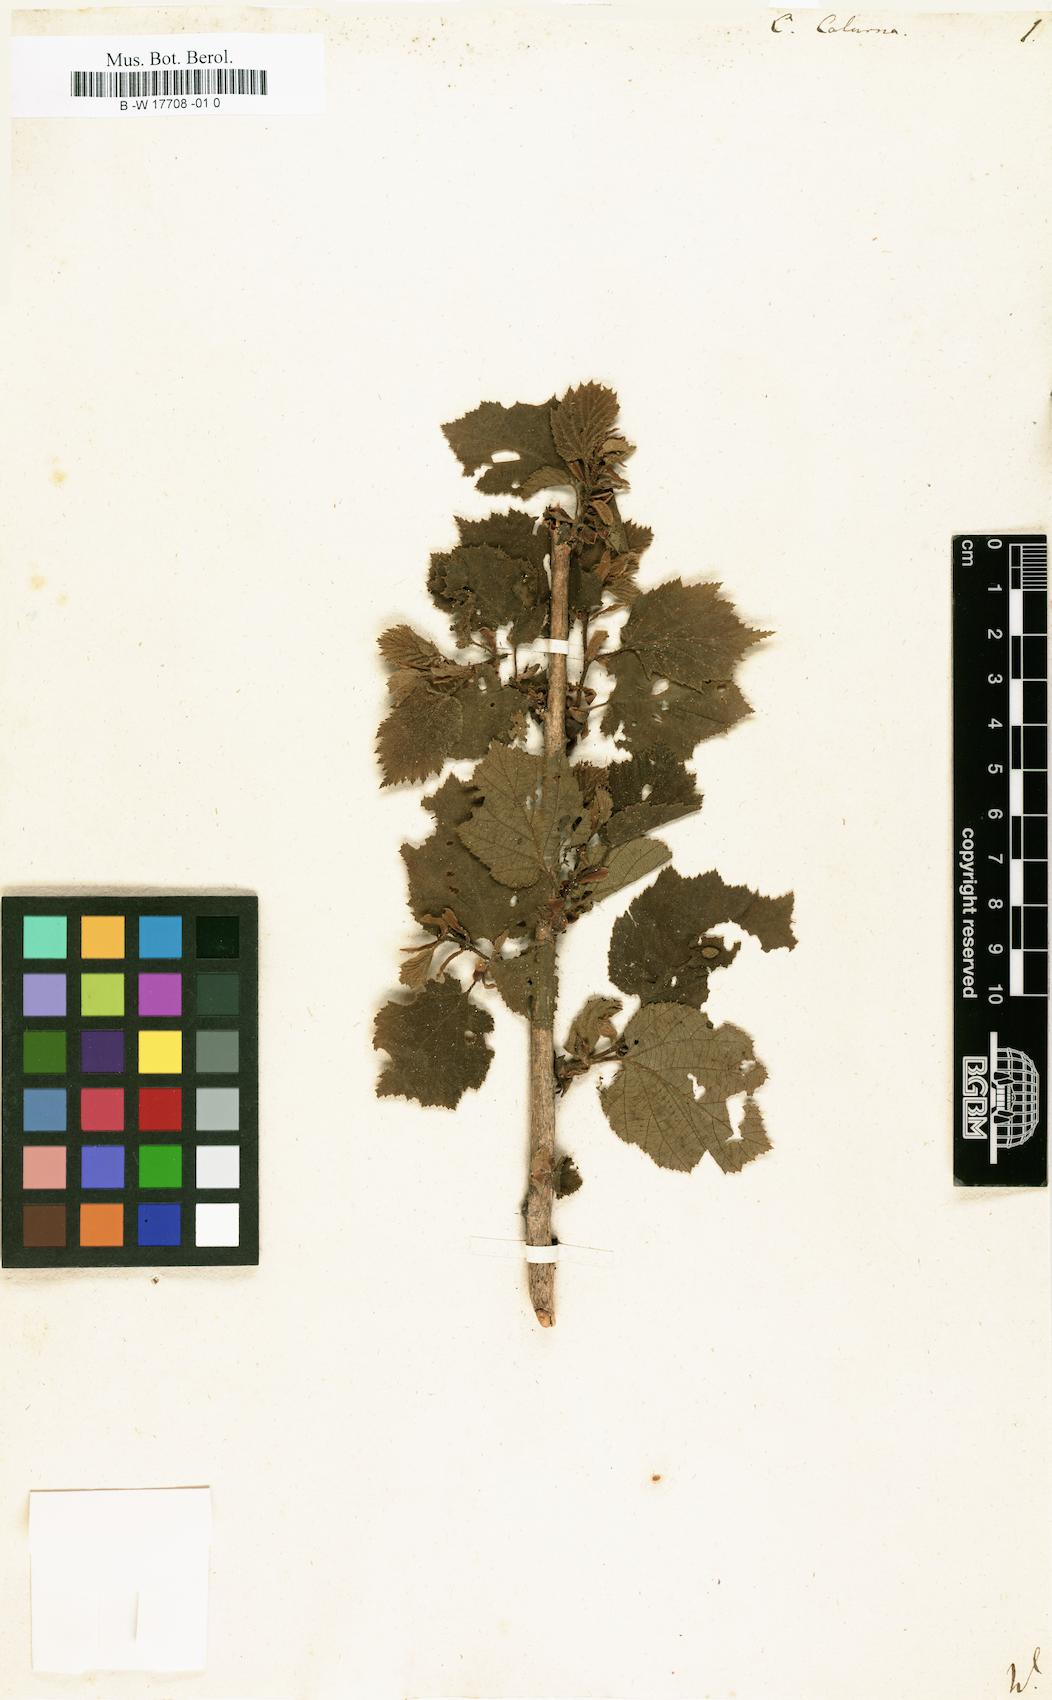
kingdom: Plantae
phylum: Tracheophyta
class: Magnoliopsida
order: Fagales
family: Betulaceae
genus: Corylus
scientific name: Corylus colurna
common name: Turkish hazel
